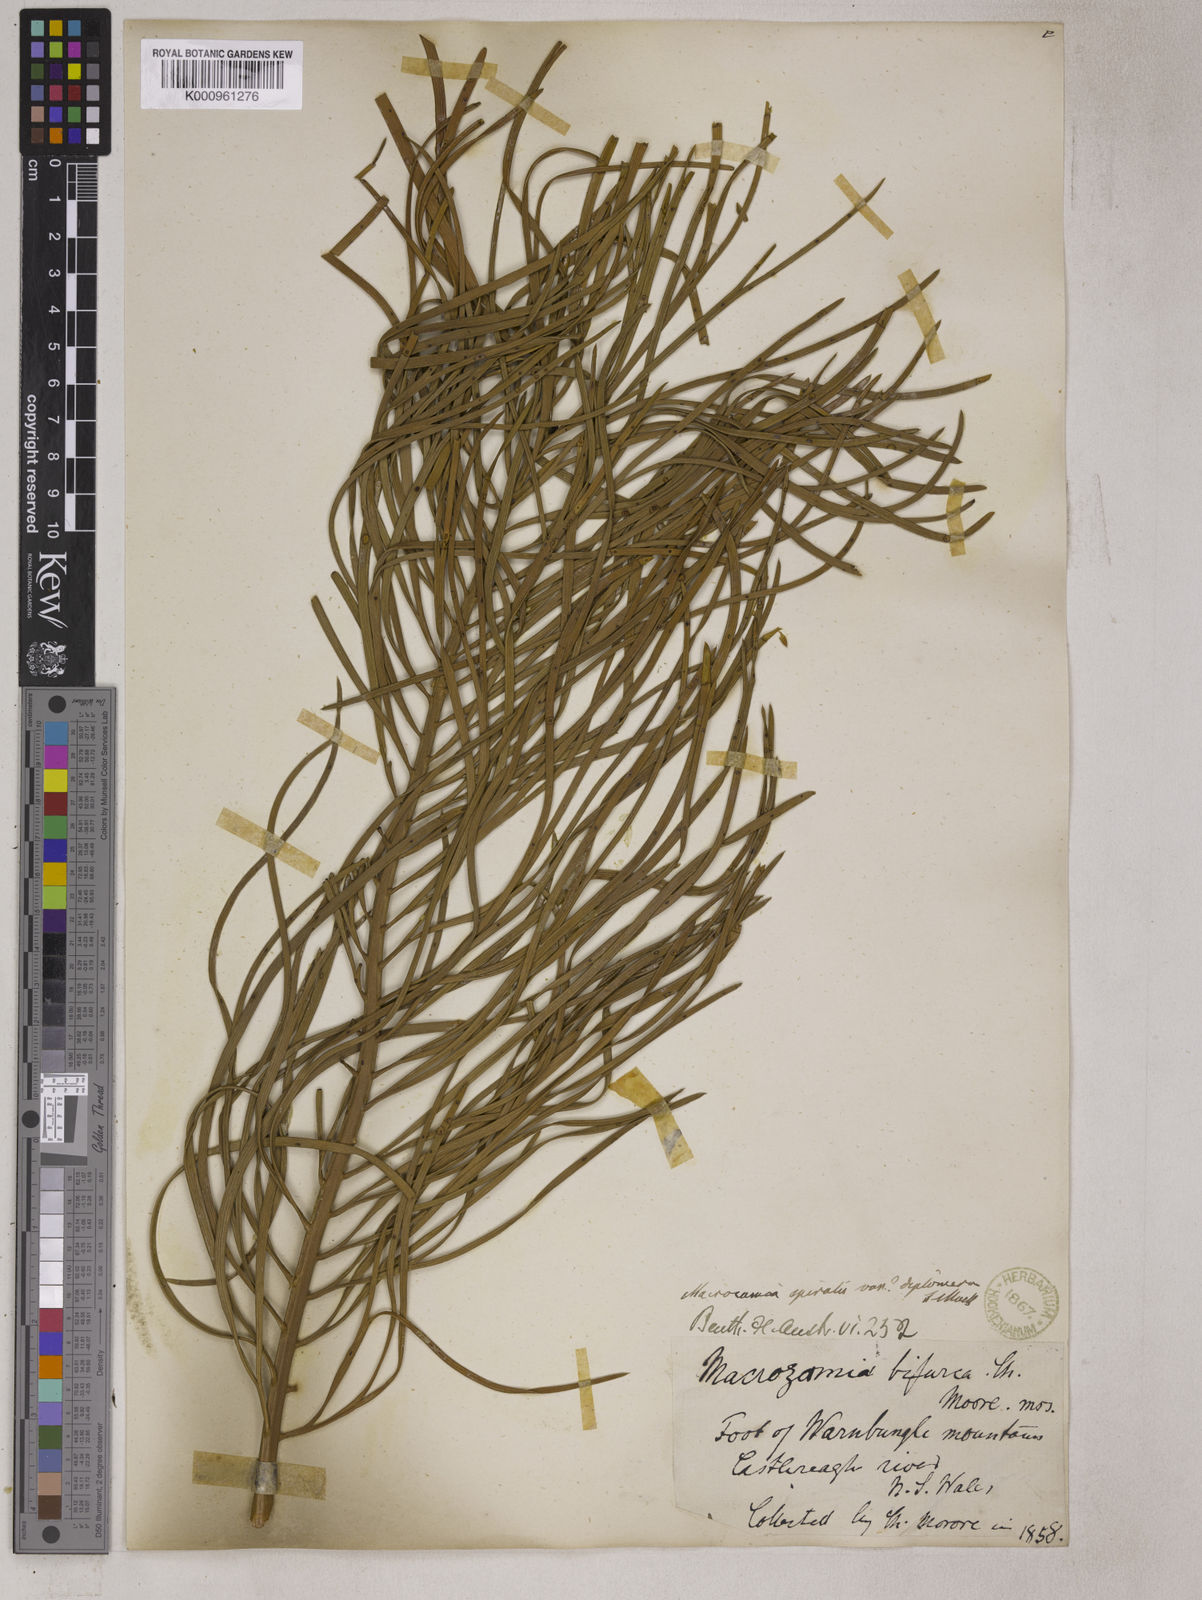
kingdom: Plantae
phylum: Tracheophyta
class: Cycadopsida
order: Cycadales
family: Zamiaceae
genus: Macrozamia
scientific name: Macrozamia spiralis
